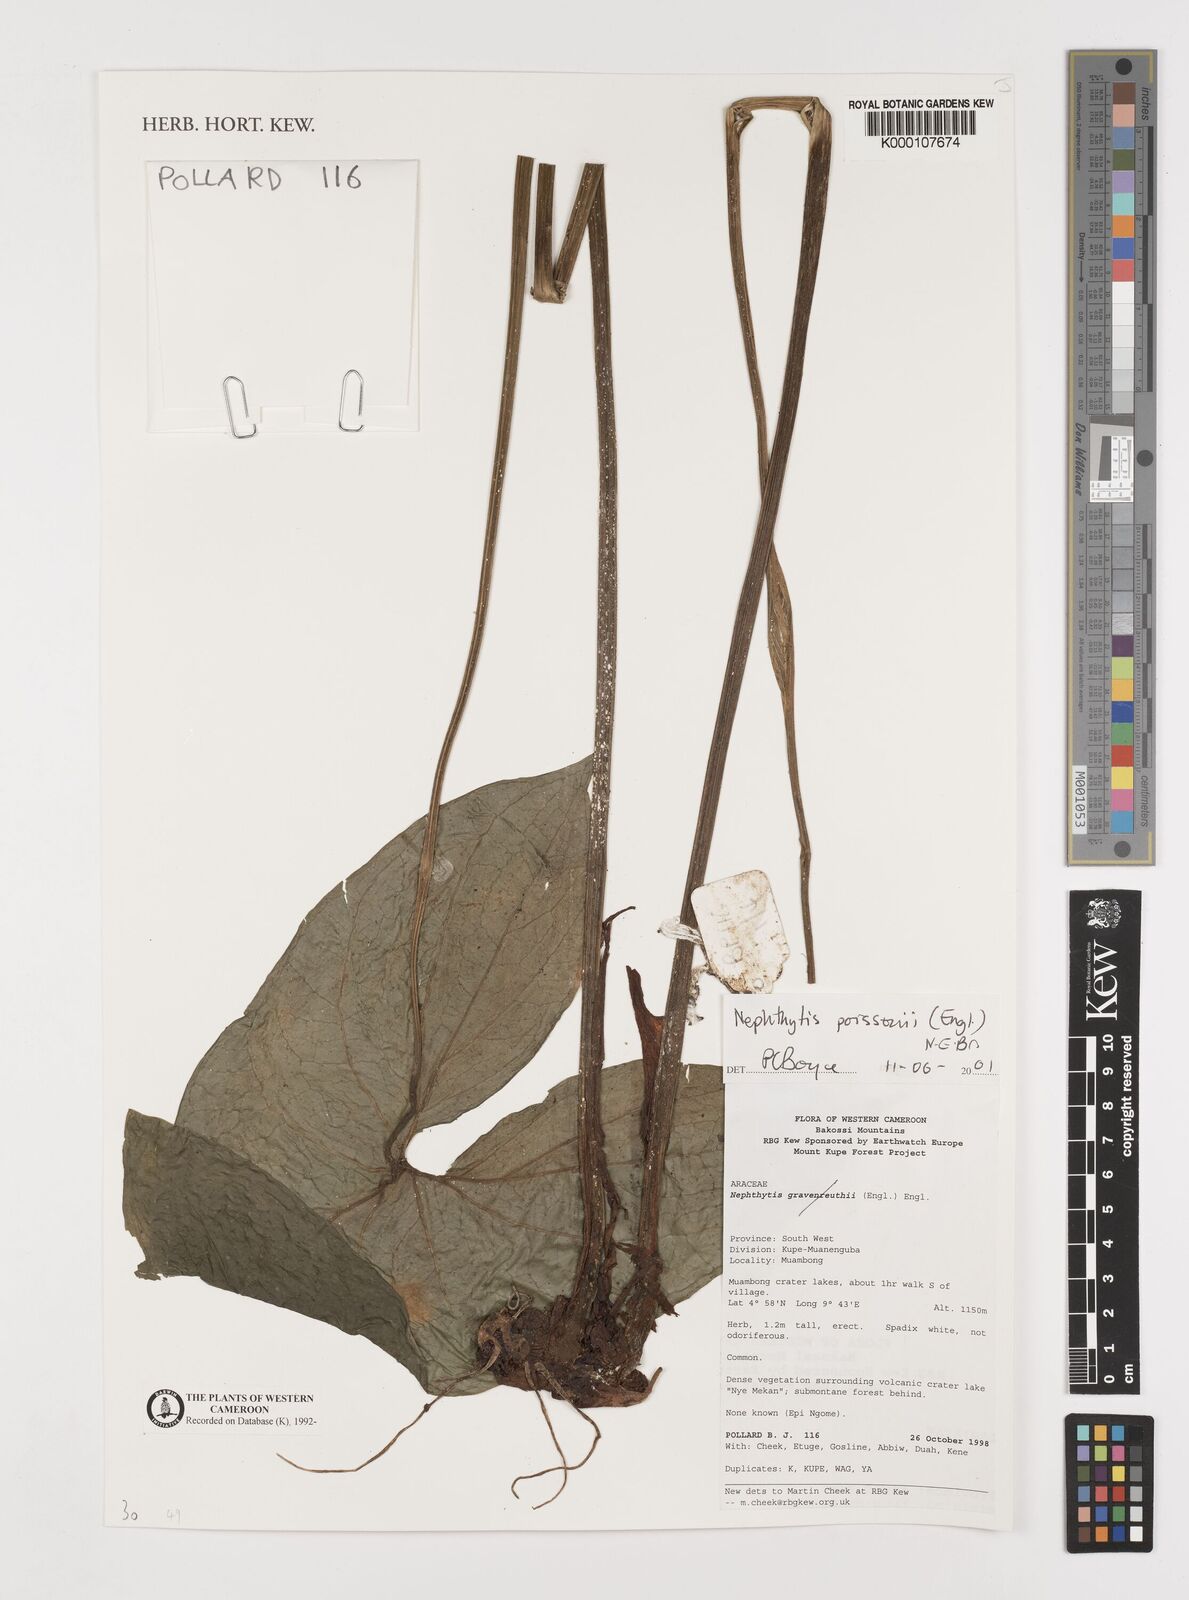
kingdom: Plantae
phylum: Tracheophyta
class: Liliopsida
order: Alismatales
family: Araceae
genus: Nephthytis
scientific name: Nephthytis poissonii
